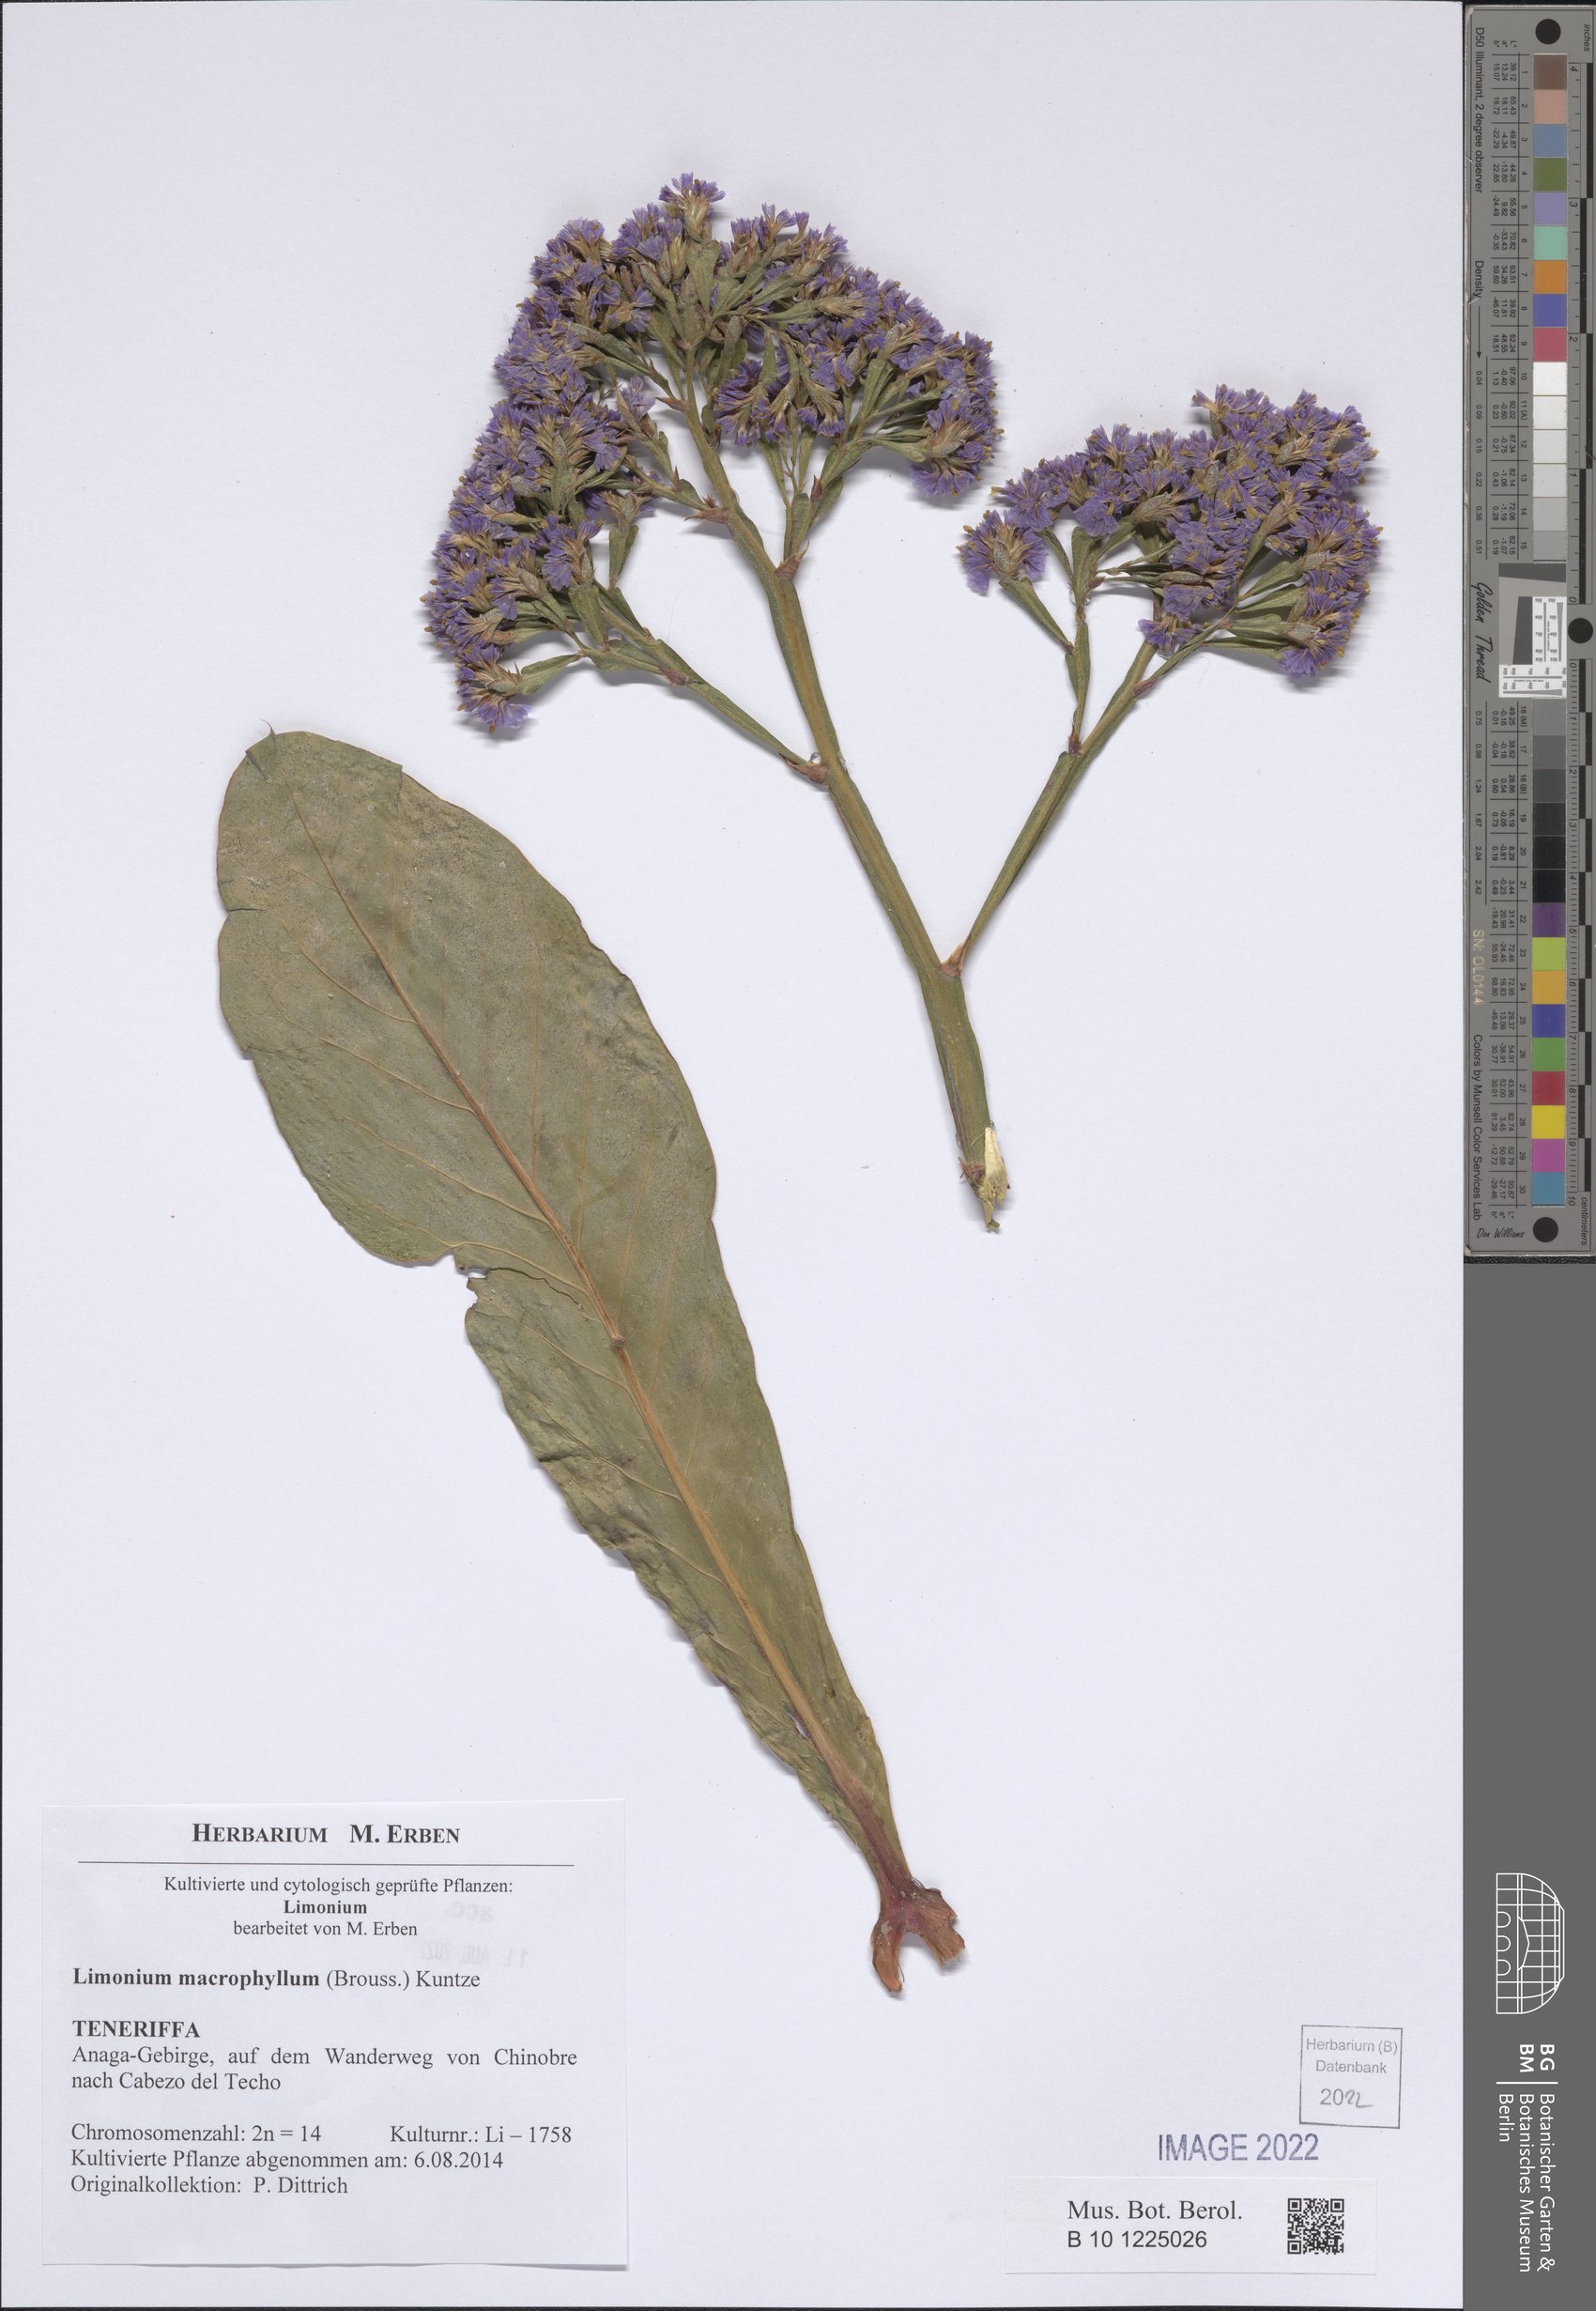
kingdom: Plantae
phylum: Tracheophyta
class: Magnoliopsida
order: Caryophyllales
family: Plumbaginaceae
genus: Limonium
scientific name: Limonium macrophyllum
